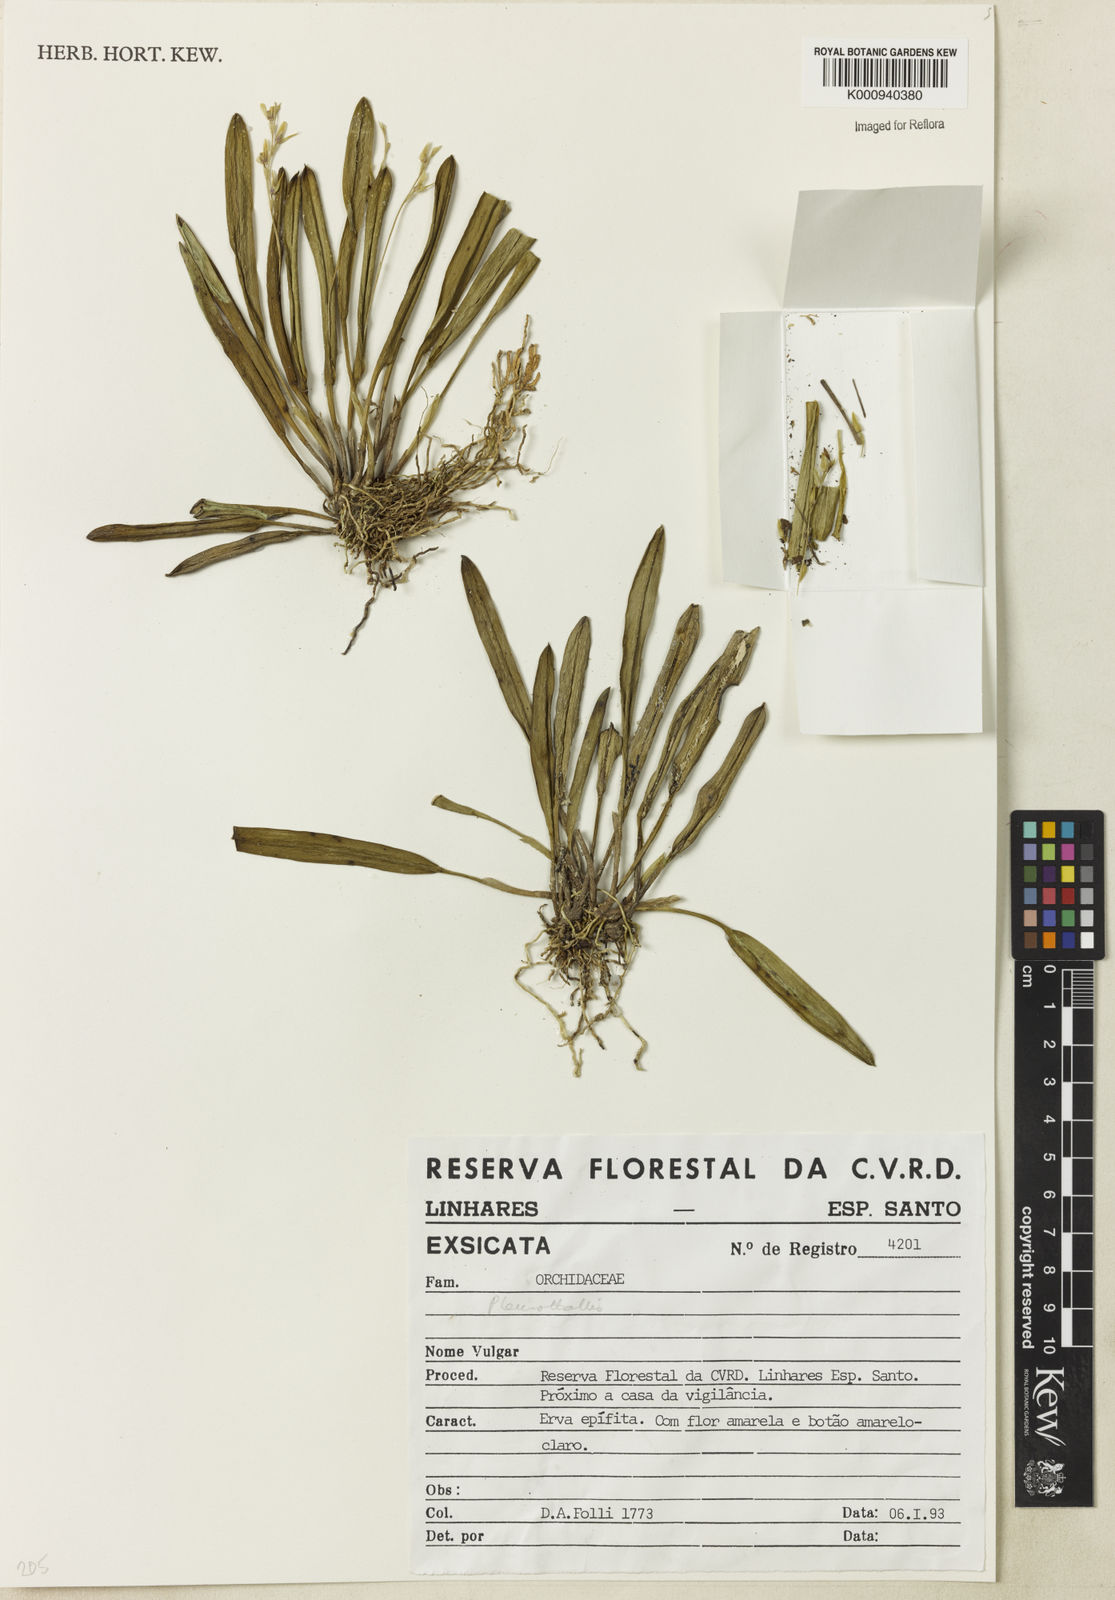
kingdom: Plantae
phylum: Tracheophyta
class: Liliopsida
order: Asparagales
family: Orchidaceae
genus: Acianthera
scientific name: Acianthera
